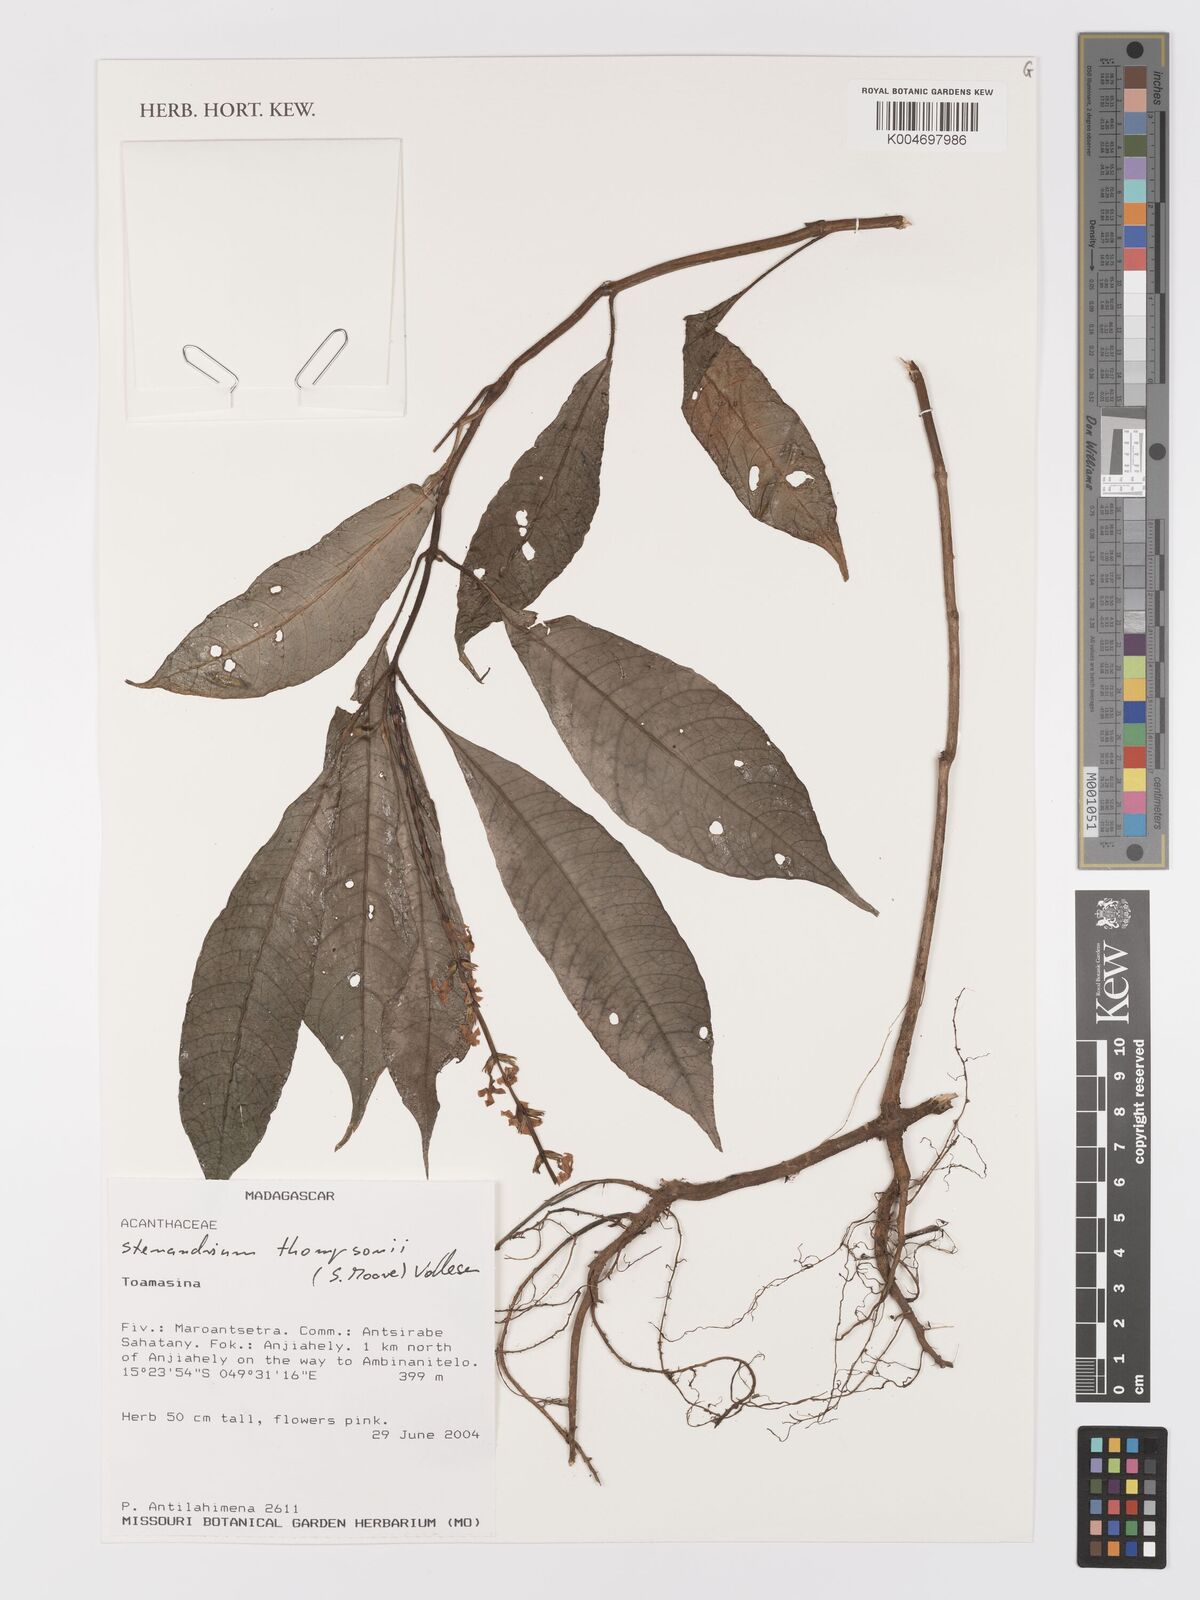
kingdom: Plantae
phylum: Tracheophyta
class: Magnoliopsida
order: Lamiales
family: Acanthaceae
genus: Stenandriopsis
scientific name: Stenandriopsis thompsonii
